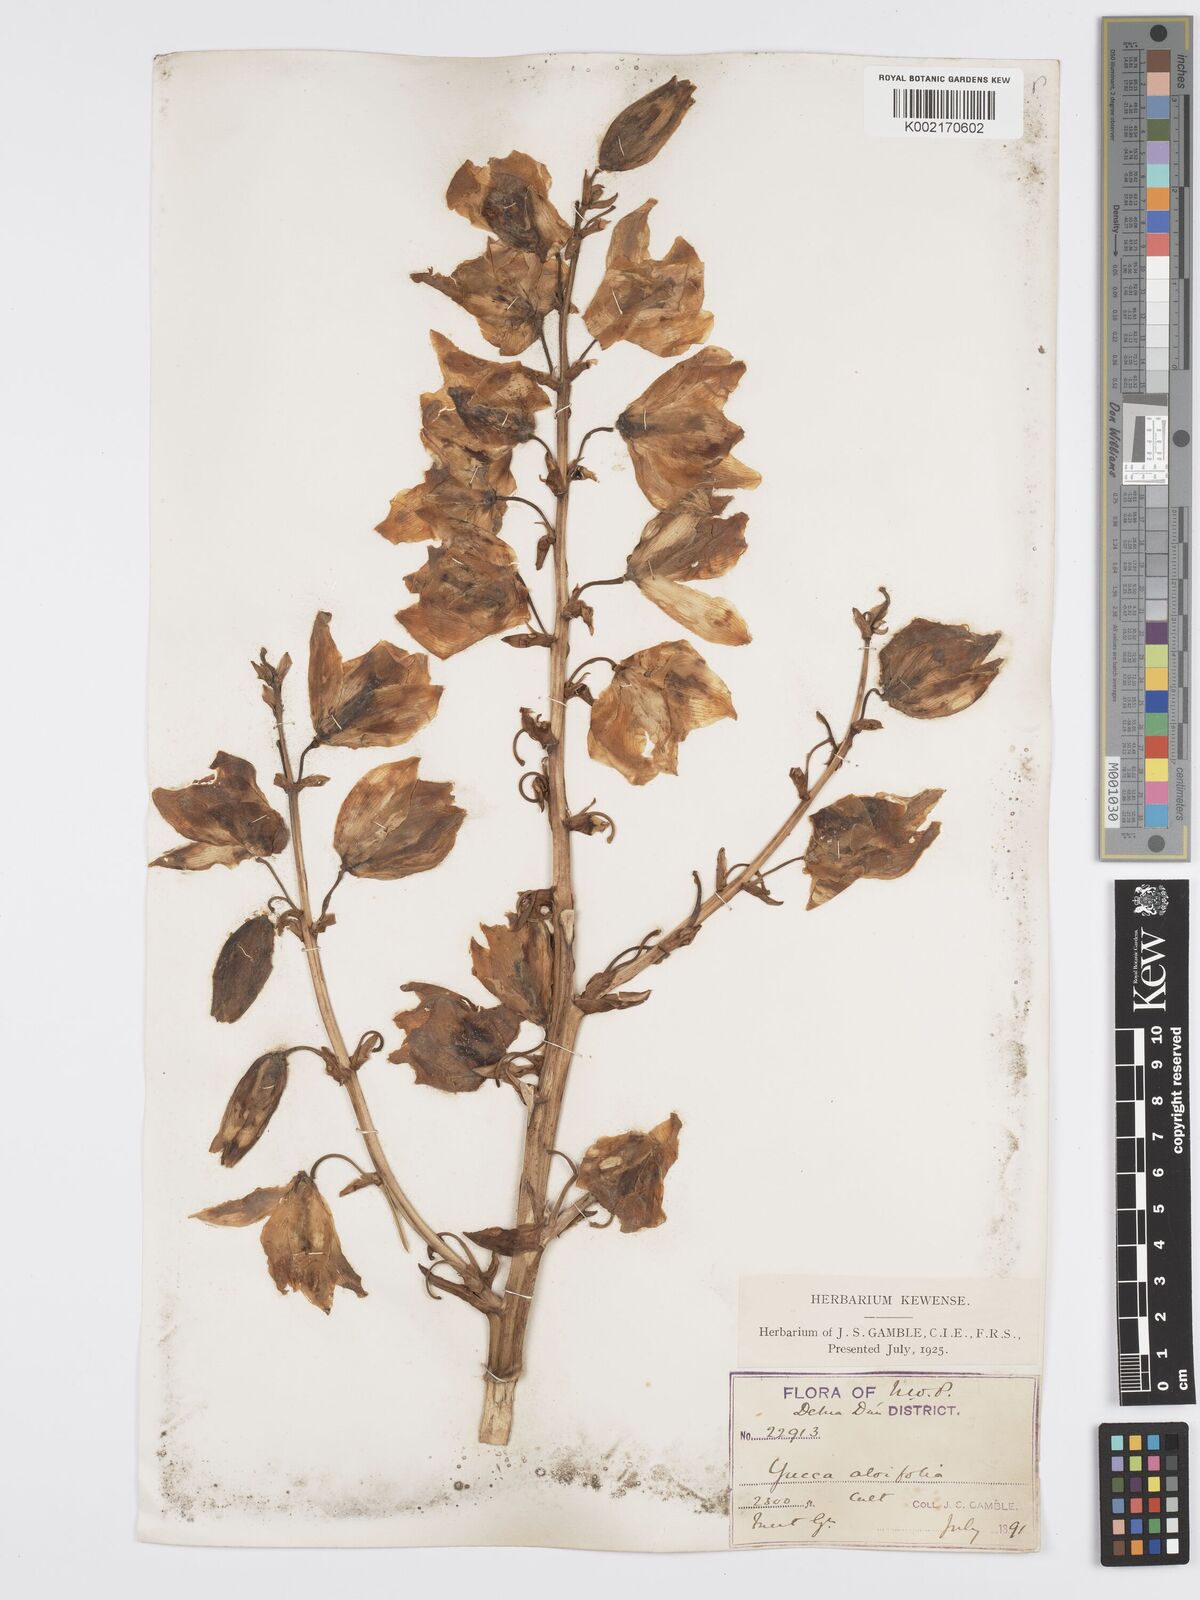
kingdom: Plantae
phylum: Tracheophyta
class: Liliopsida
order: Asparagales
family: Asparagaceae
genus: Yucca
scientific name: Yucca aloifolia
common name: Aloe yucca
